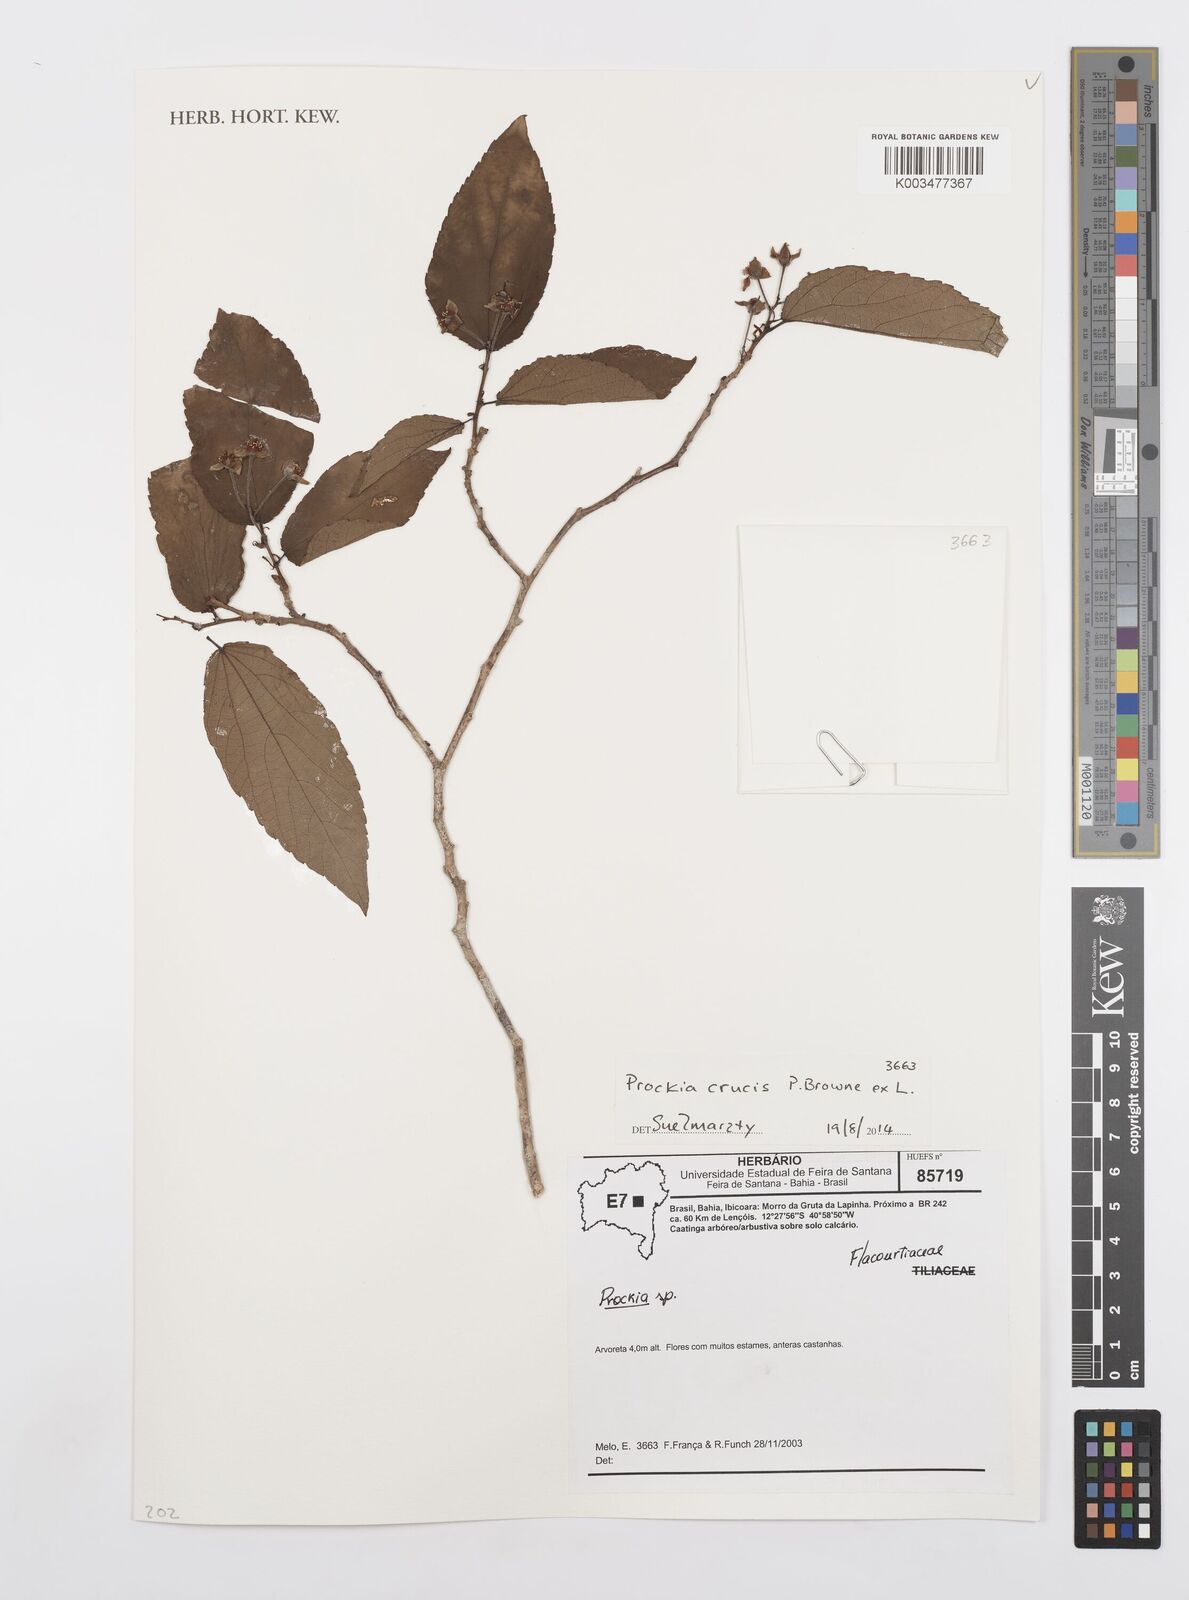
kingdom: Plantae
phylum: Tracheophyta
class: Magnoliopsida
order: Malpighiales
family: Salicaceae
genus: Prockia
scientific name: Prockia crucis
